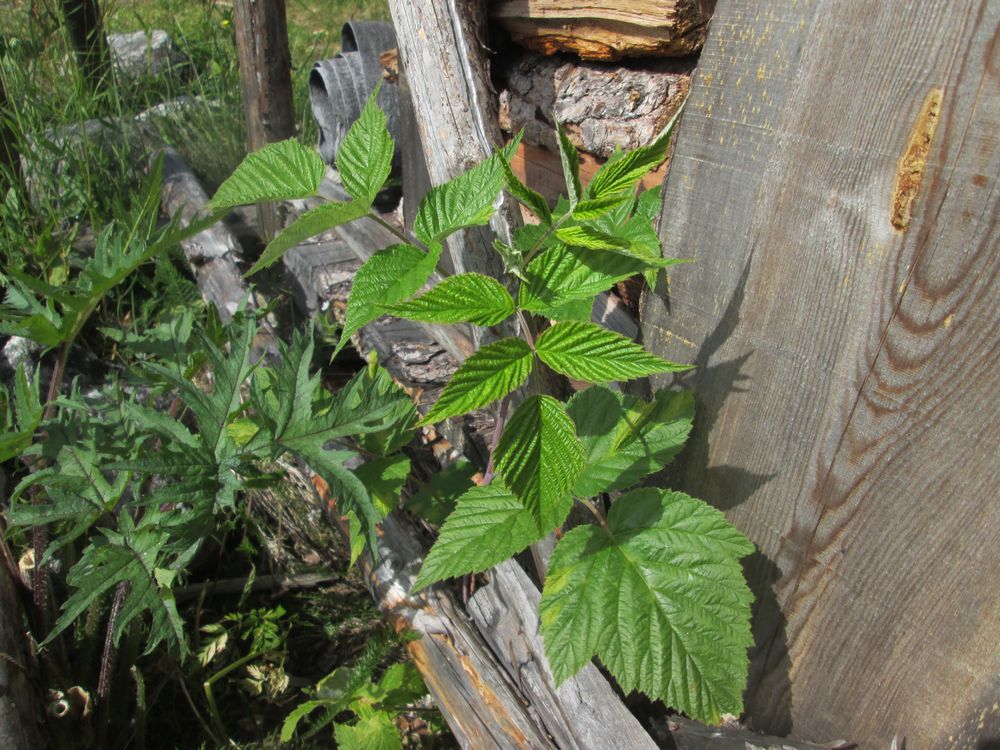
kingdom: Plantae
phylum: Tracheophyta
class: Magnoliopsida
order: Rosales
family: Rosaceae
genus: Rubus
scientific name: Rubus idaeus
